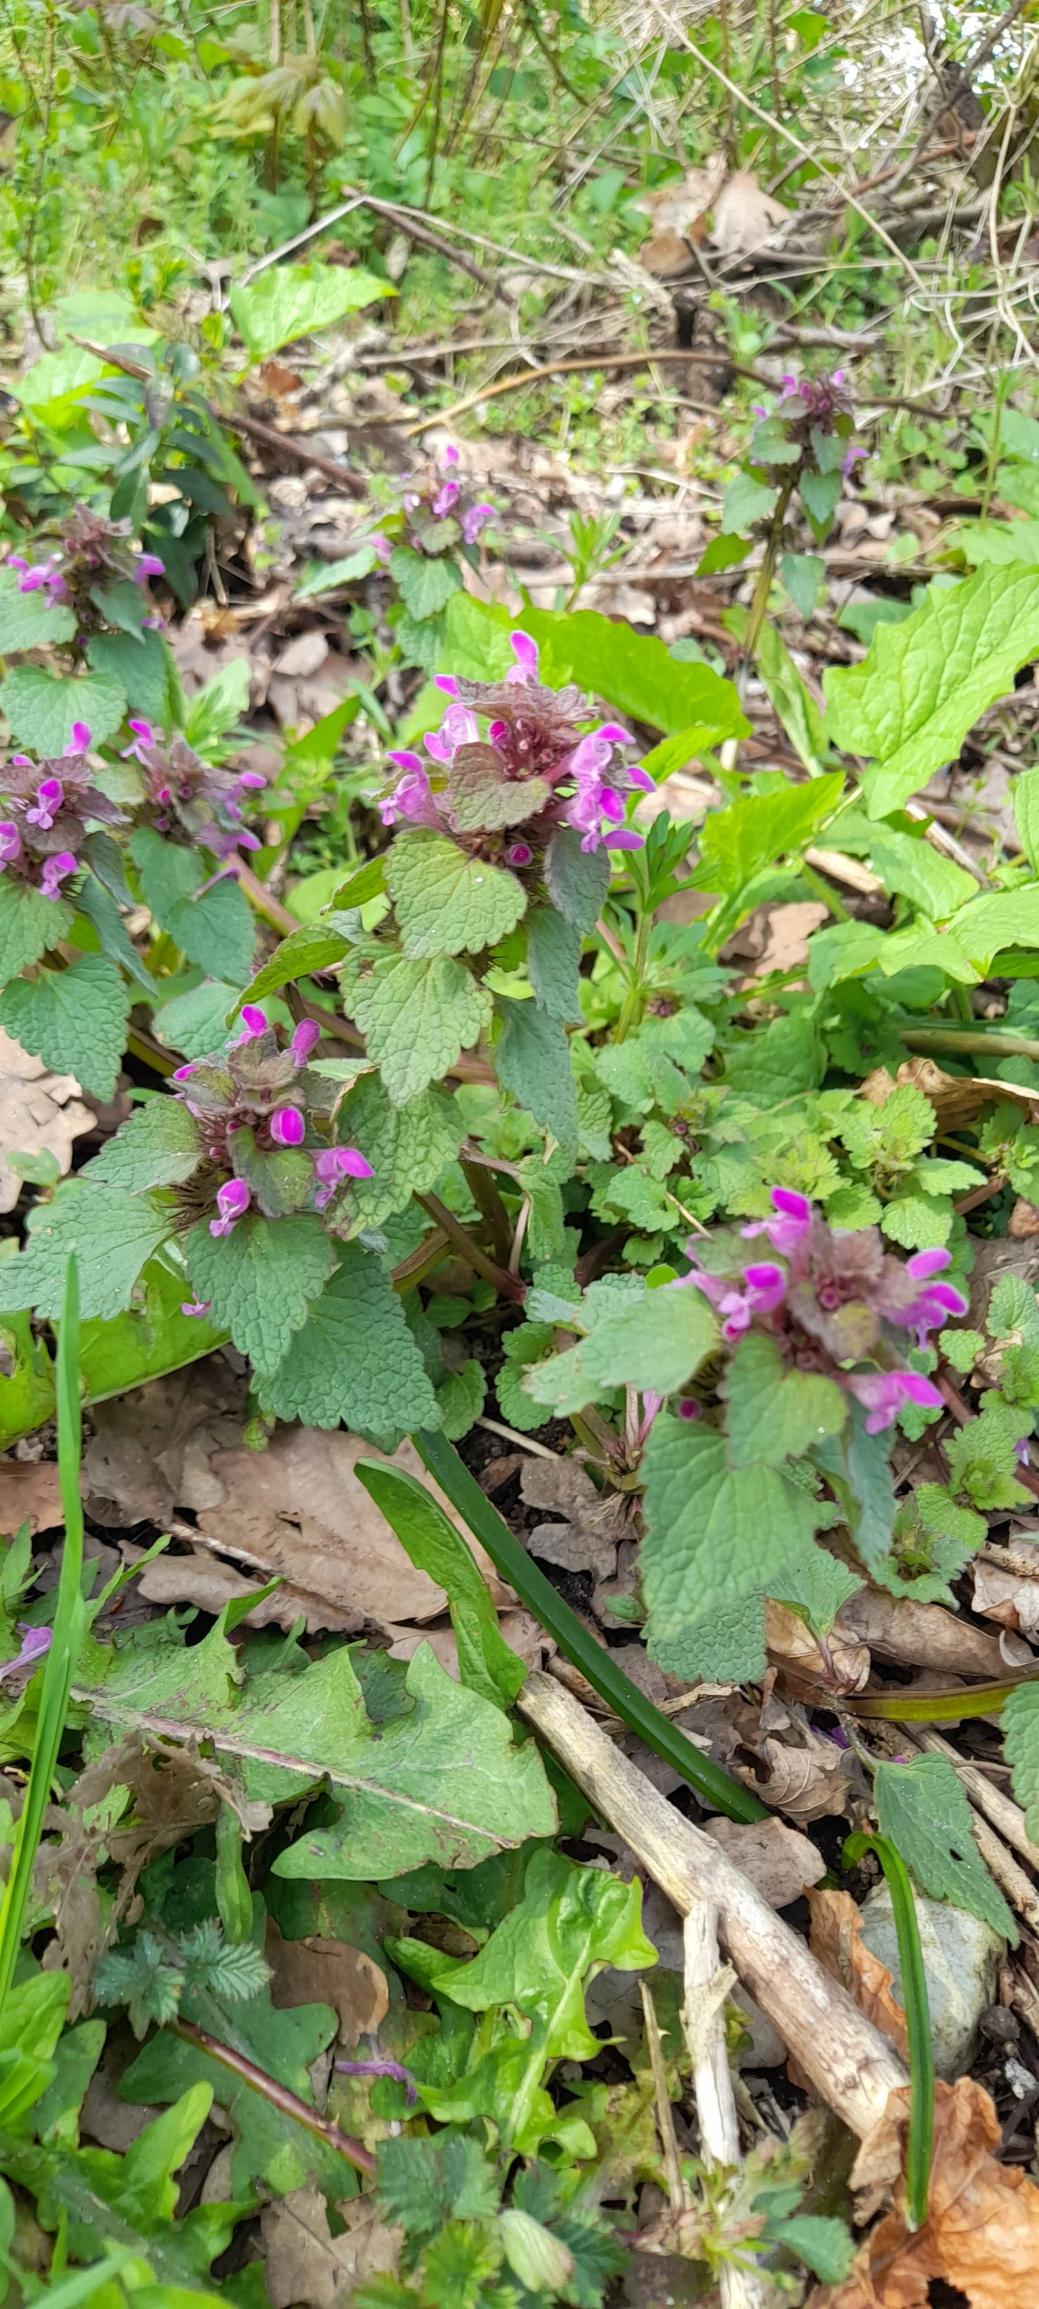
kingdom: Plantae
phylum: Tracheophyta
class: Magnoliopsida
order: Lamiales
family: Lamiaceae
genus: Lamium
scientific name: Lamium purpureum
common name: Rød tvetand
